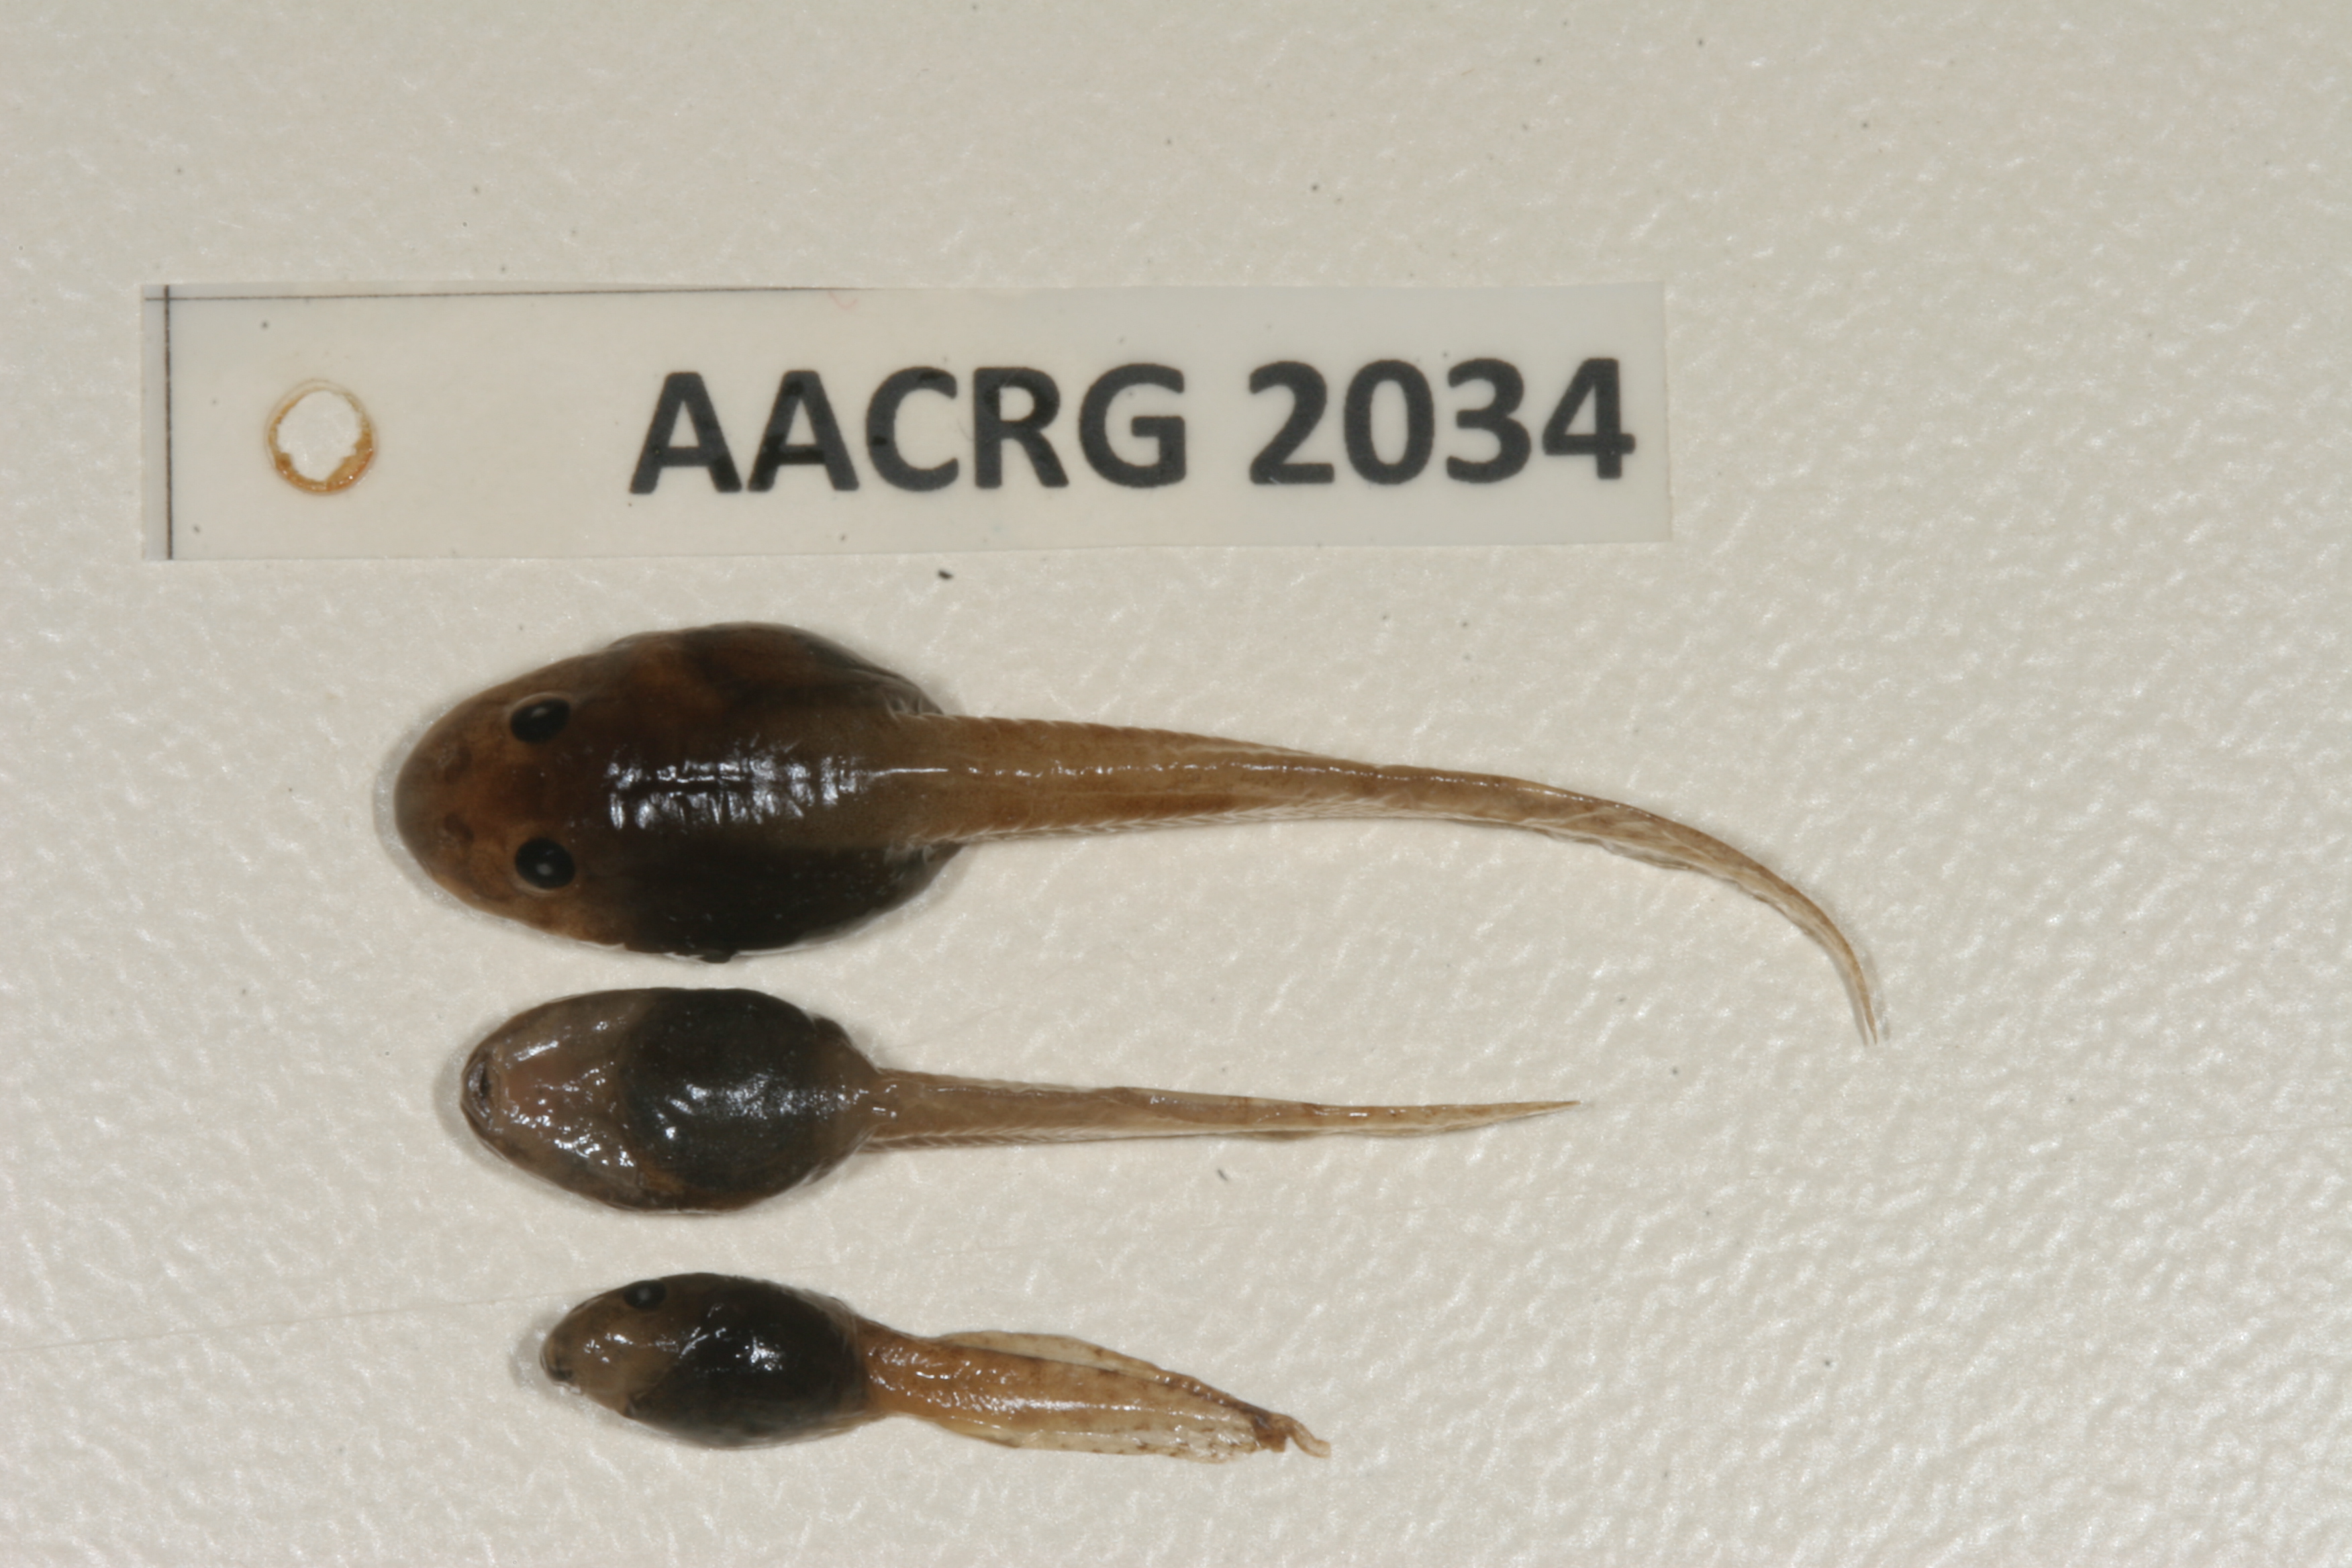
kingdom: Animalia
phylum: Chordata
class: Amphibia
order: Anura
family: Pyxicephalidae
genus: Amietia
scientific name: Amietia angolensis
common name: Dusky-throated frog
